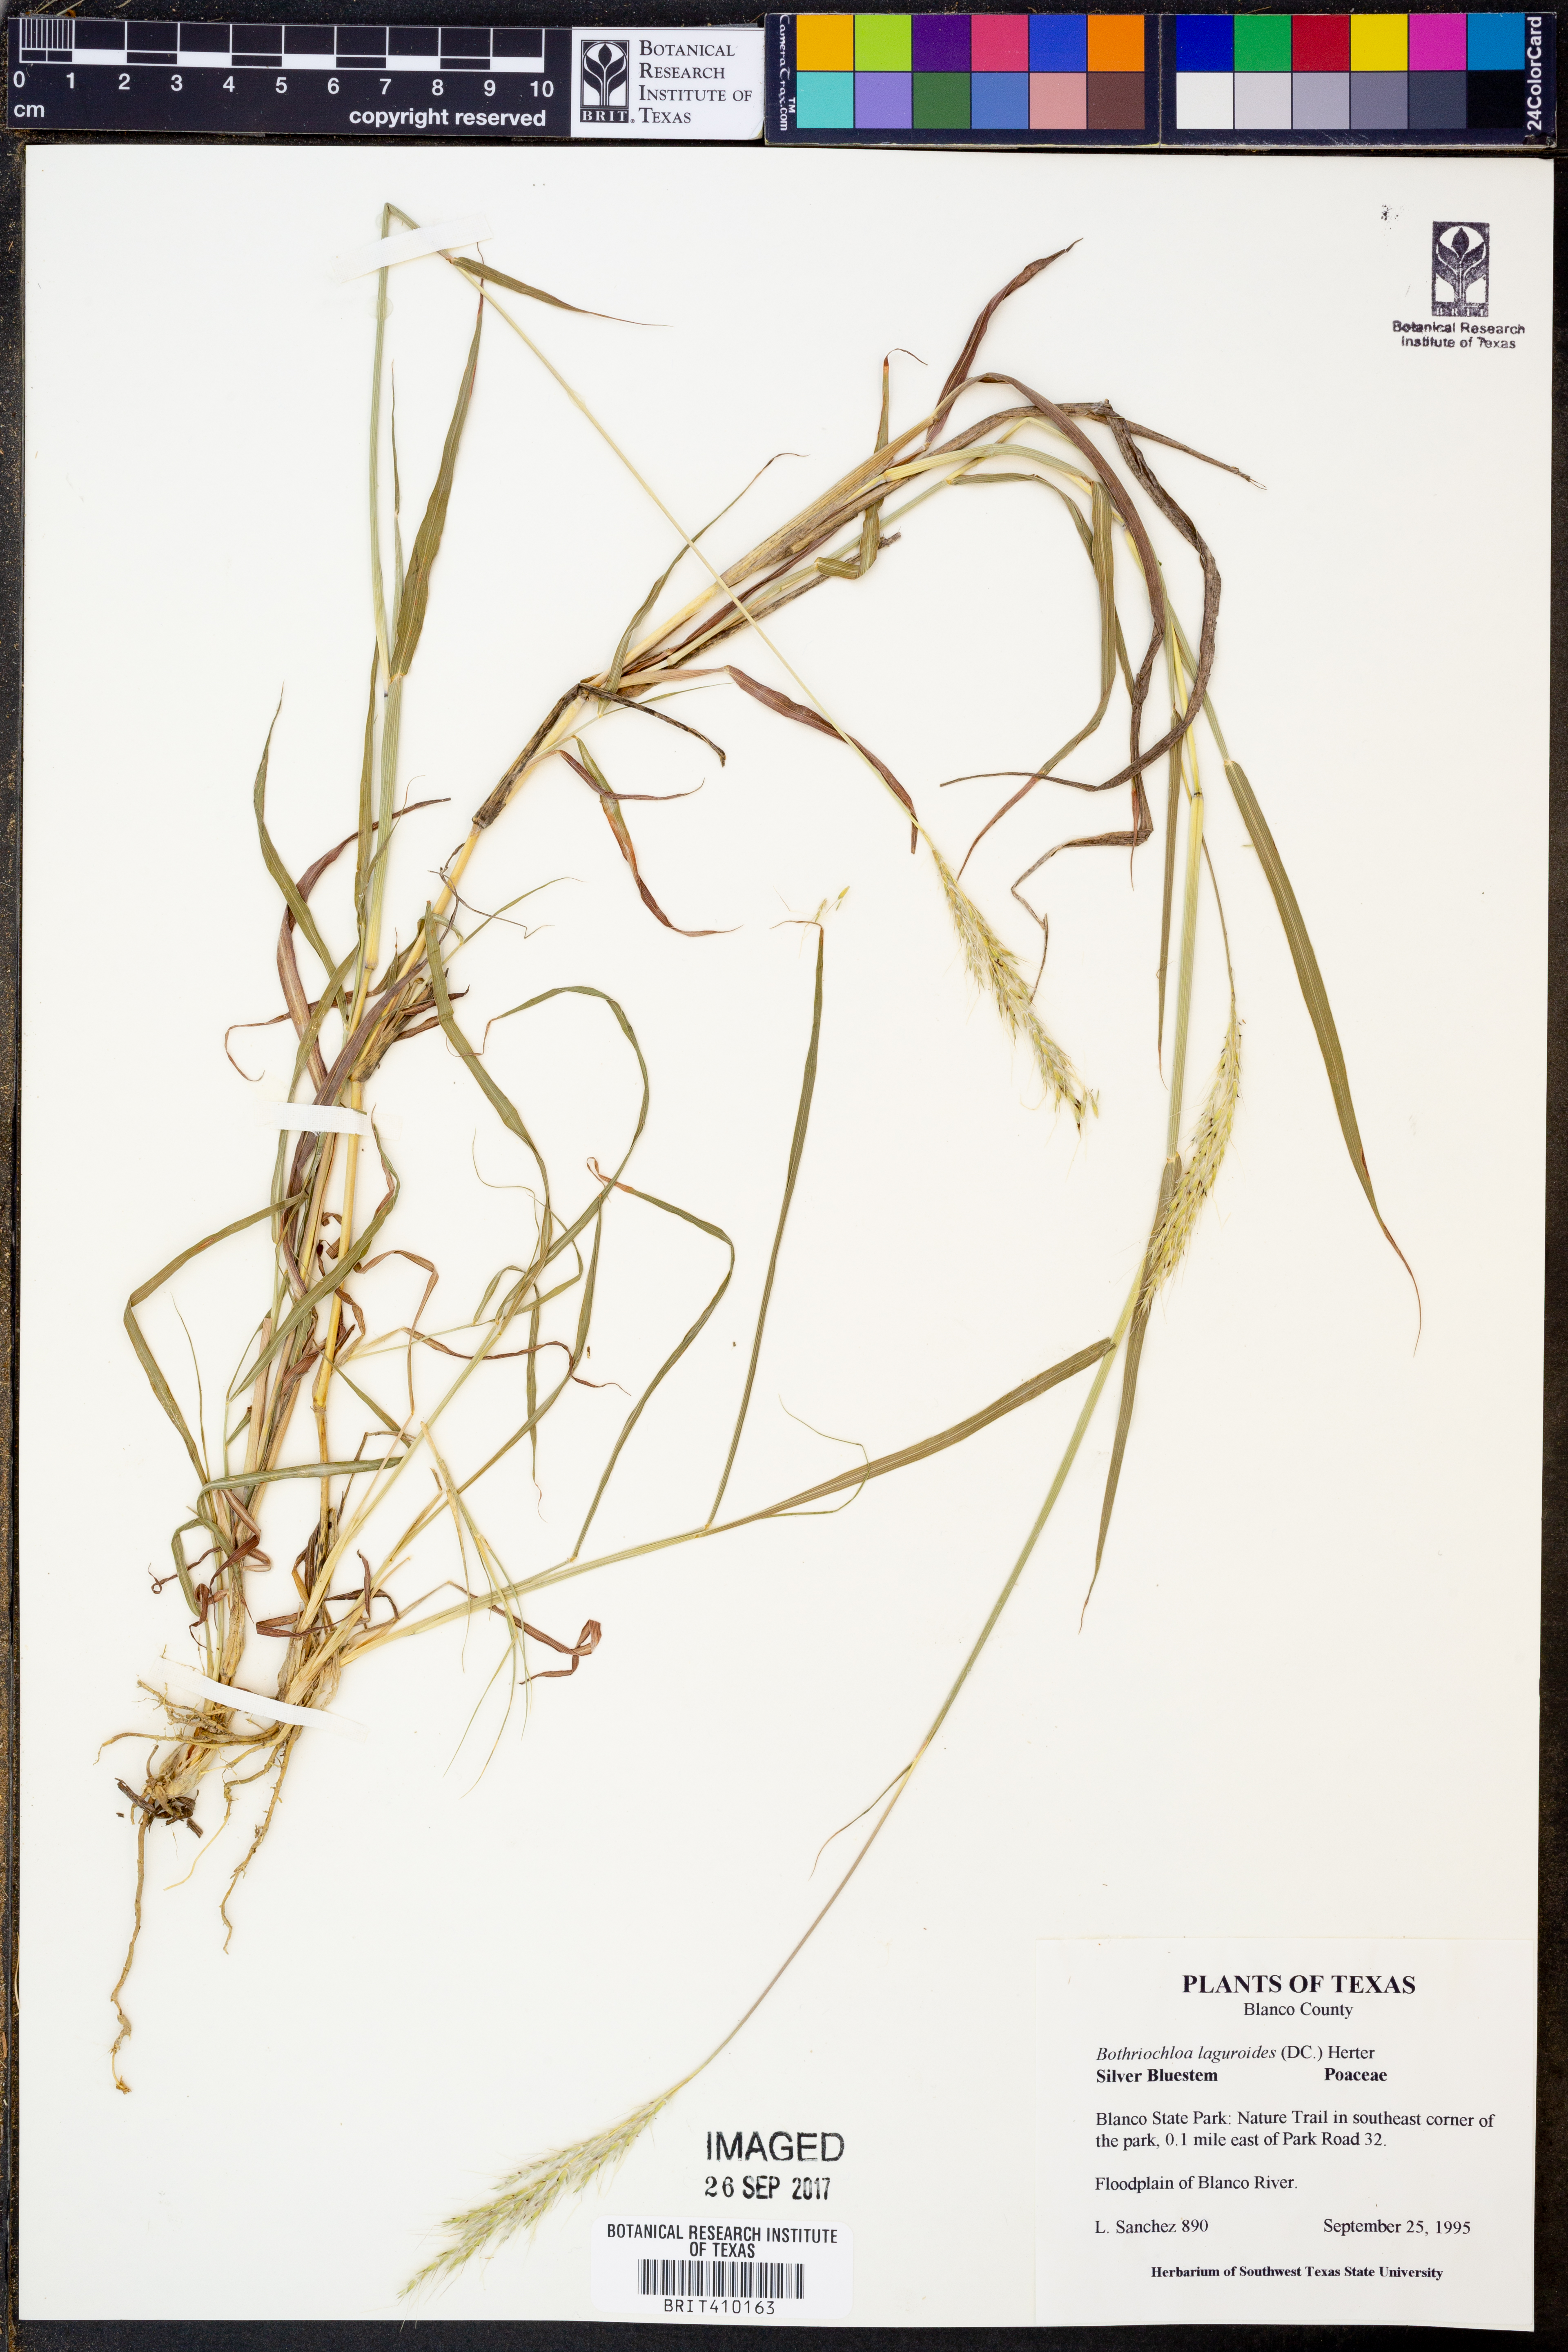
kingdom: Plantae
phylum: Tracheophyta
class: Liliopsida
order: Poales
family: Poaceae
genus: Bothriochloa
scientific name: Bothriochloa laguroides
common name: Silver bluestem
